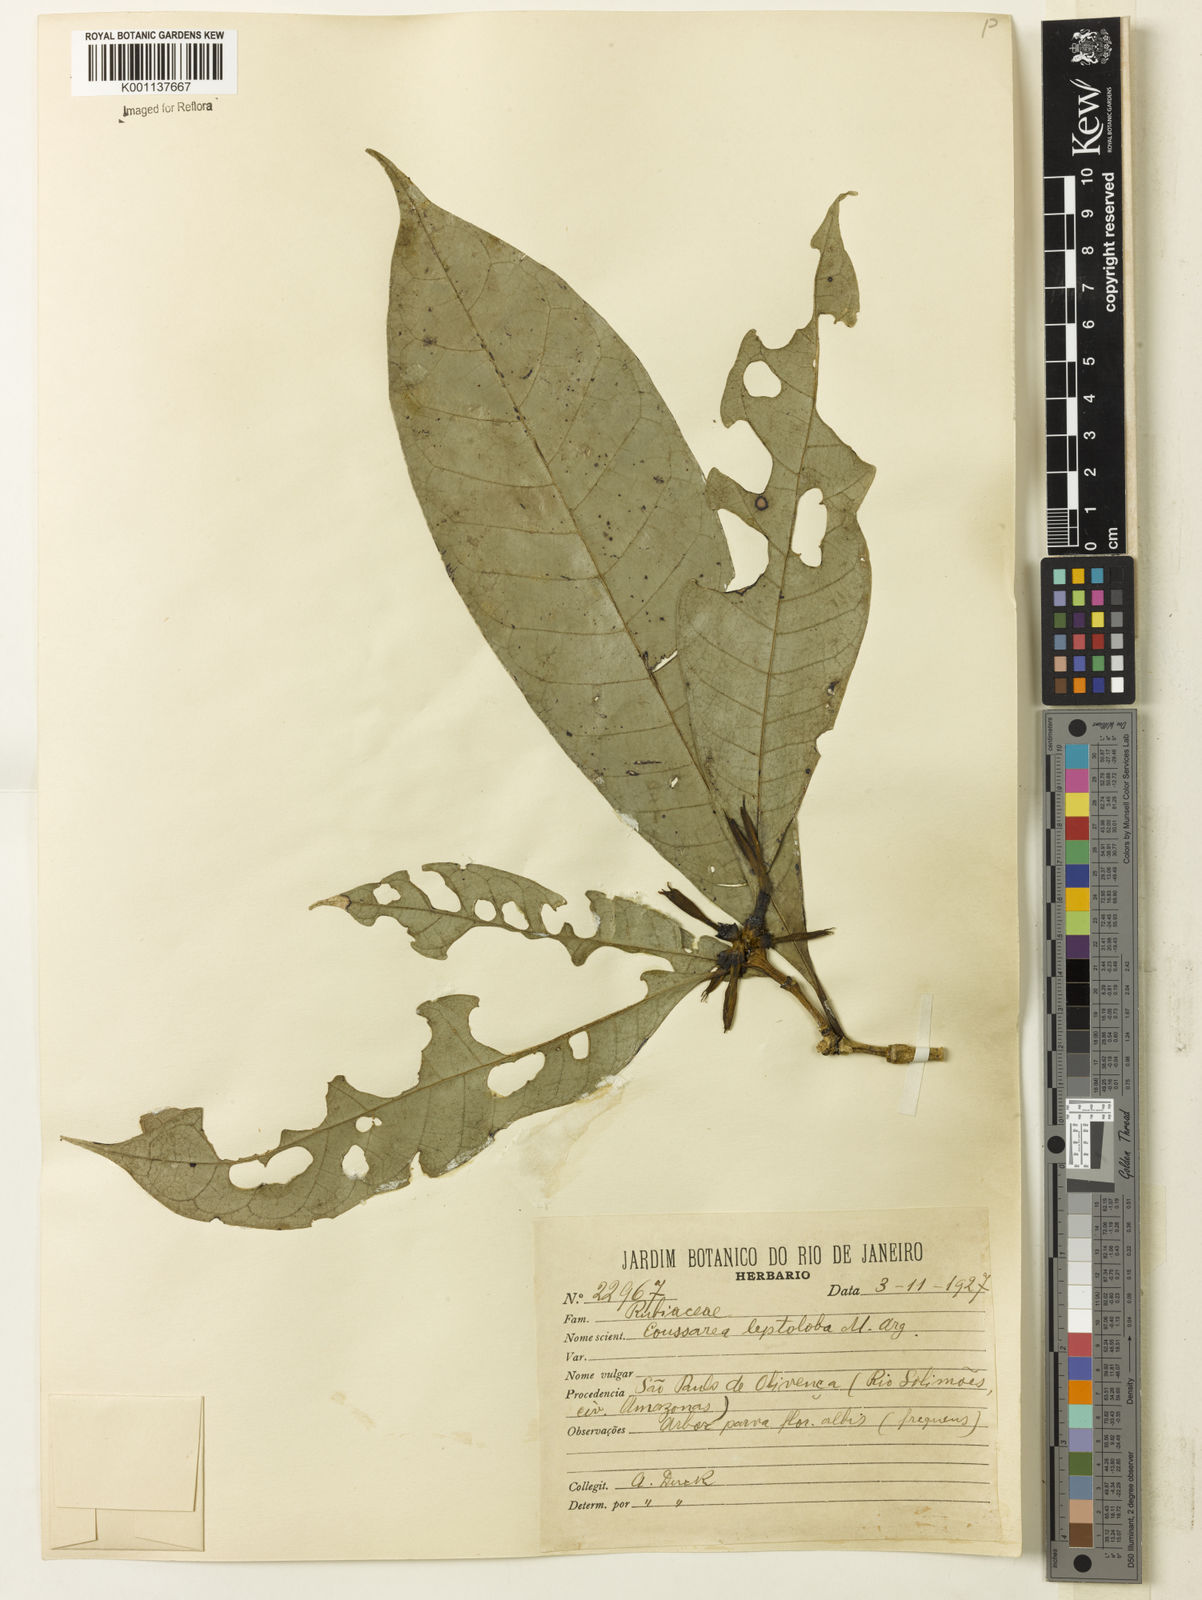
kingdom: Plantae
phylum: Tracheophyta
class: Magnoliopsida
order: Gentianales
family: Rubiaceae
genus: Coussarea
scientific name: Coussarea
